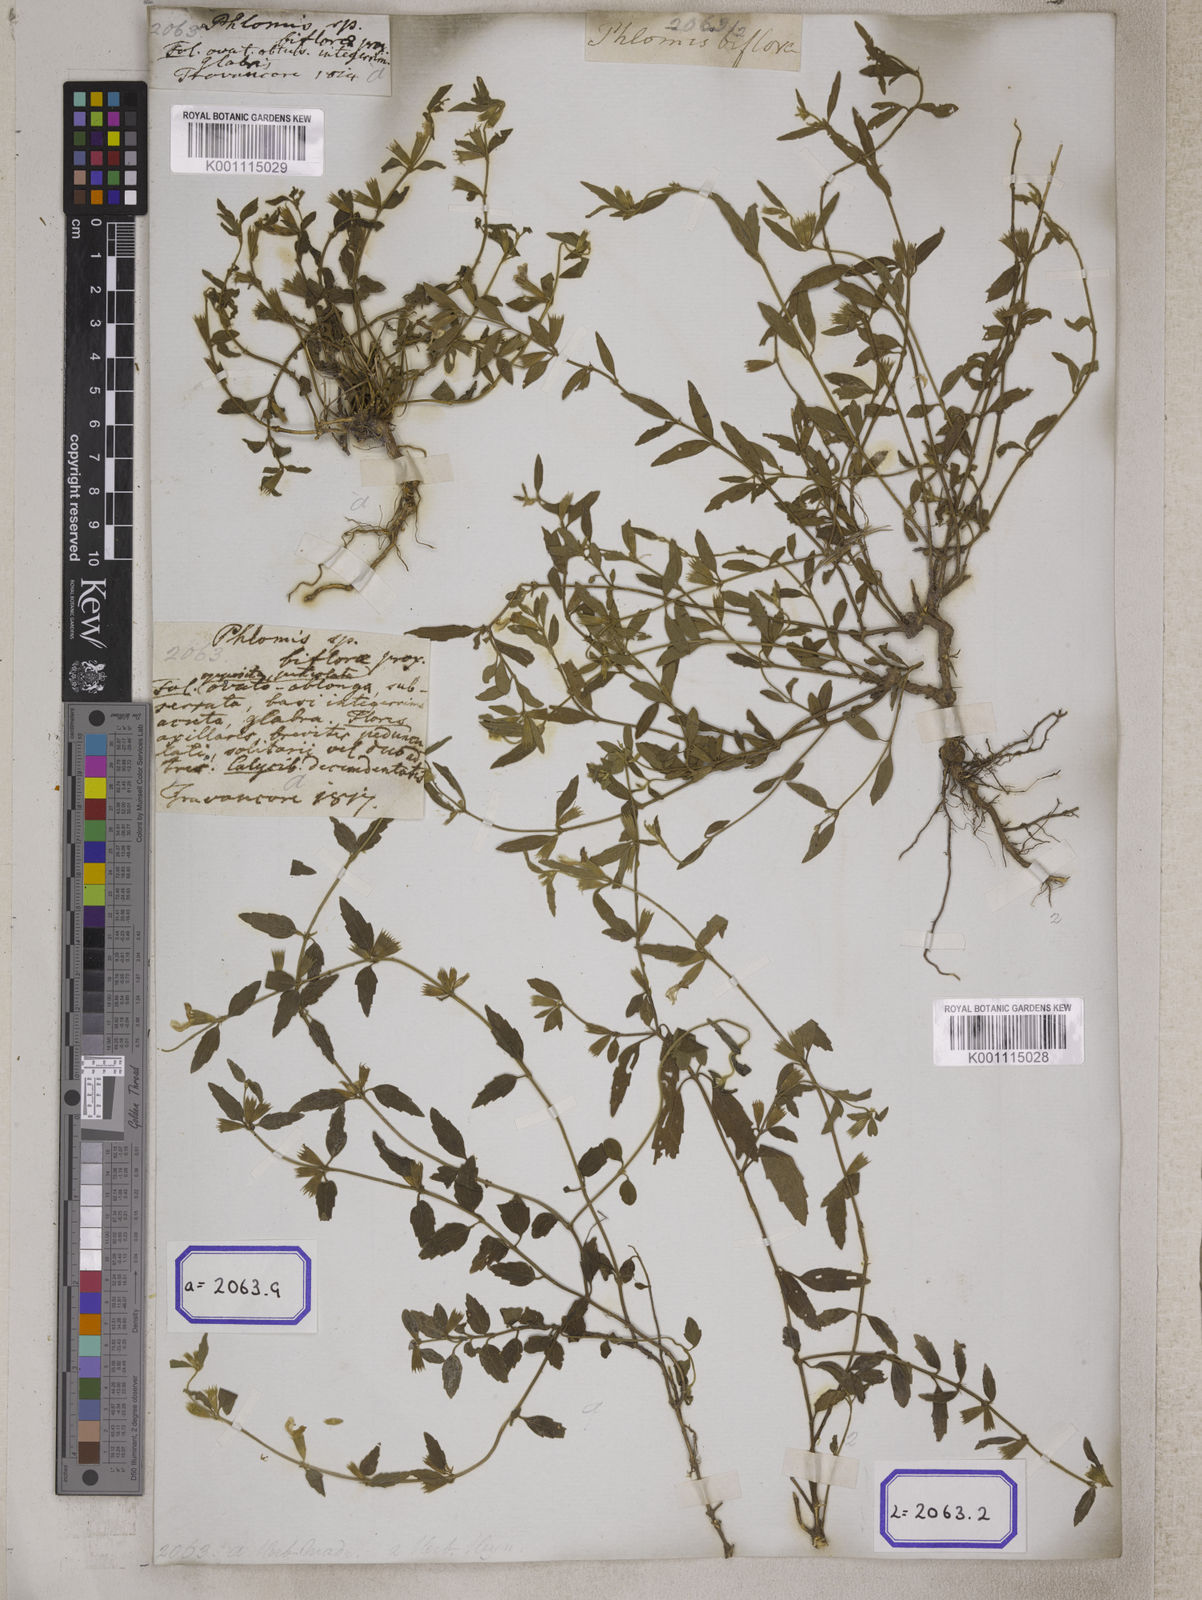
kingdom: Plantae
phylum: Tracheophyta
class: Magnoliopsida
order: Lamiales
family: Lamiaceae
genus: Leucas
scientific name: Leucas
